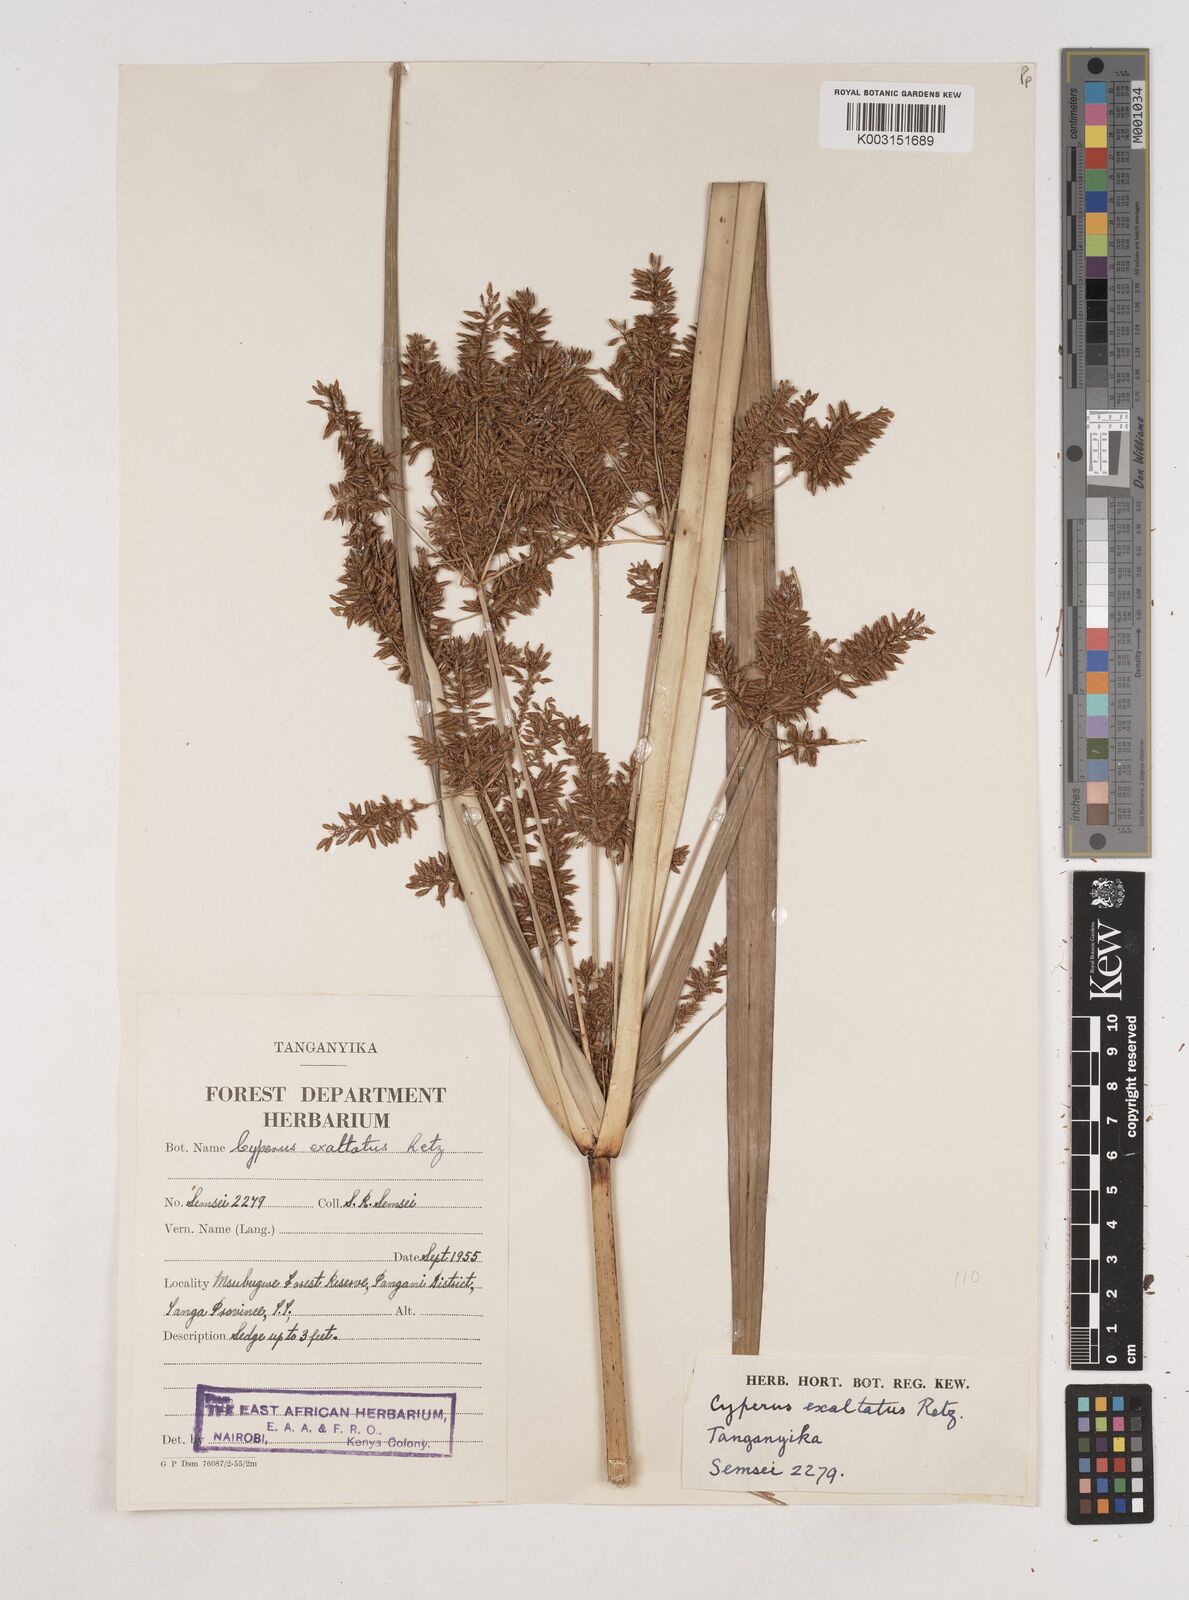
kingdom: Plantae
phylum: Tracheophyta
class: Liliopsida
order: Poales
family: Cyperaceae
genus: Cyperus
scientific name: Cyperus exaltatus
